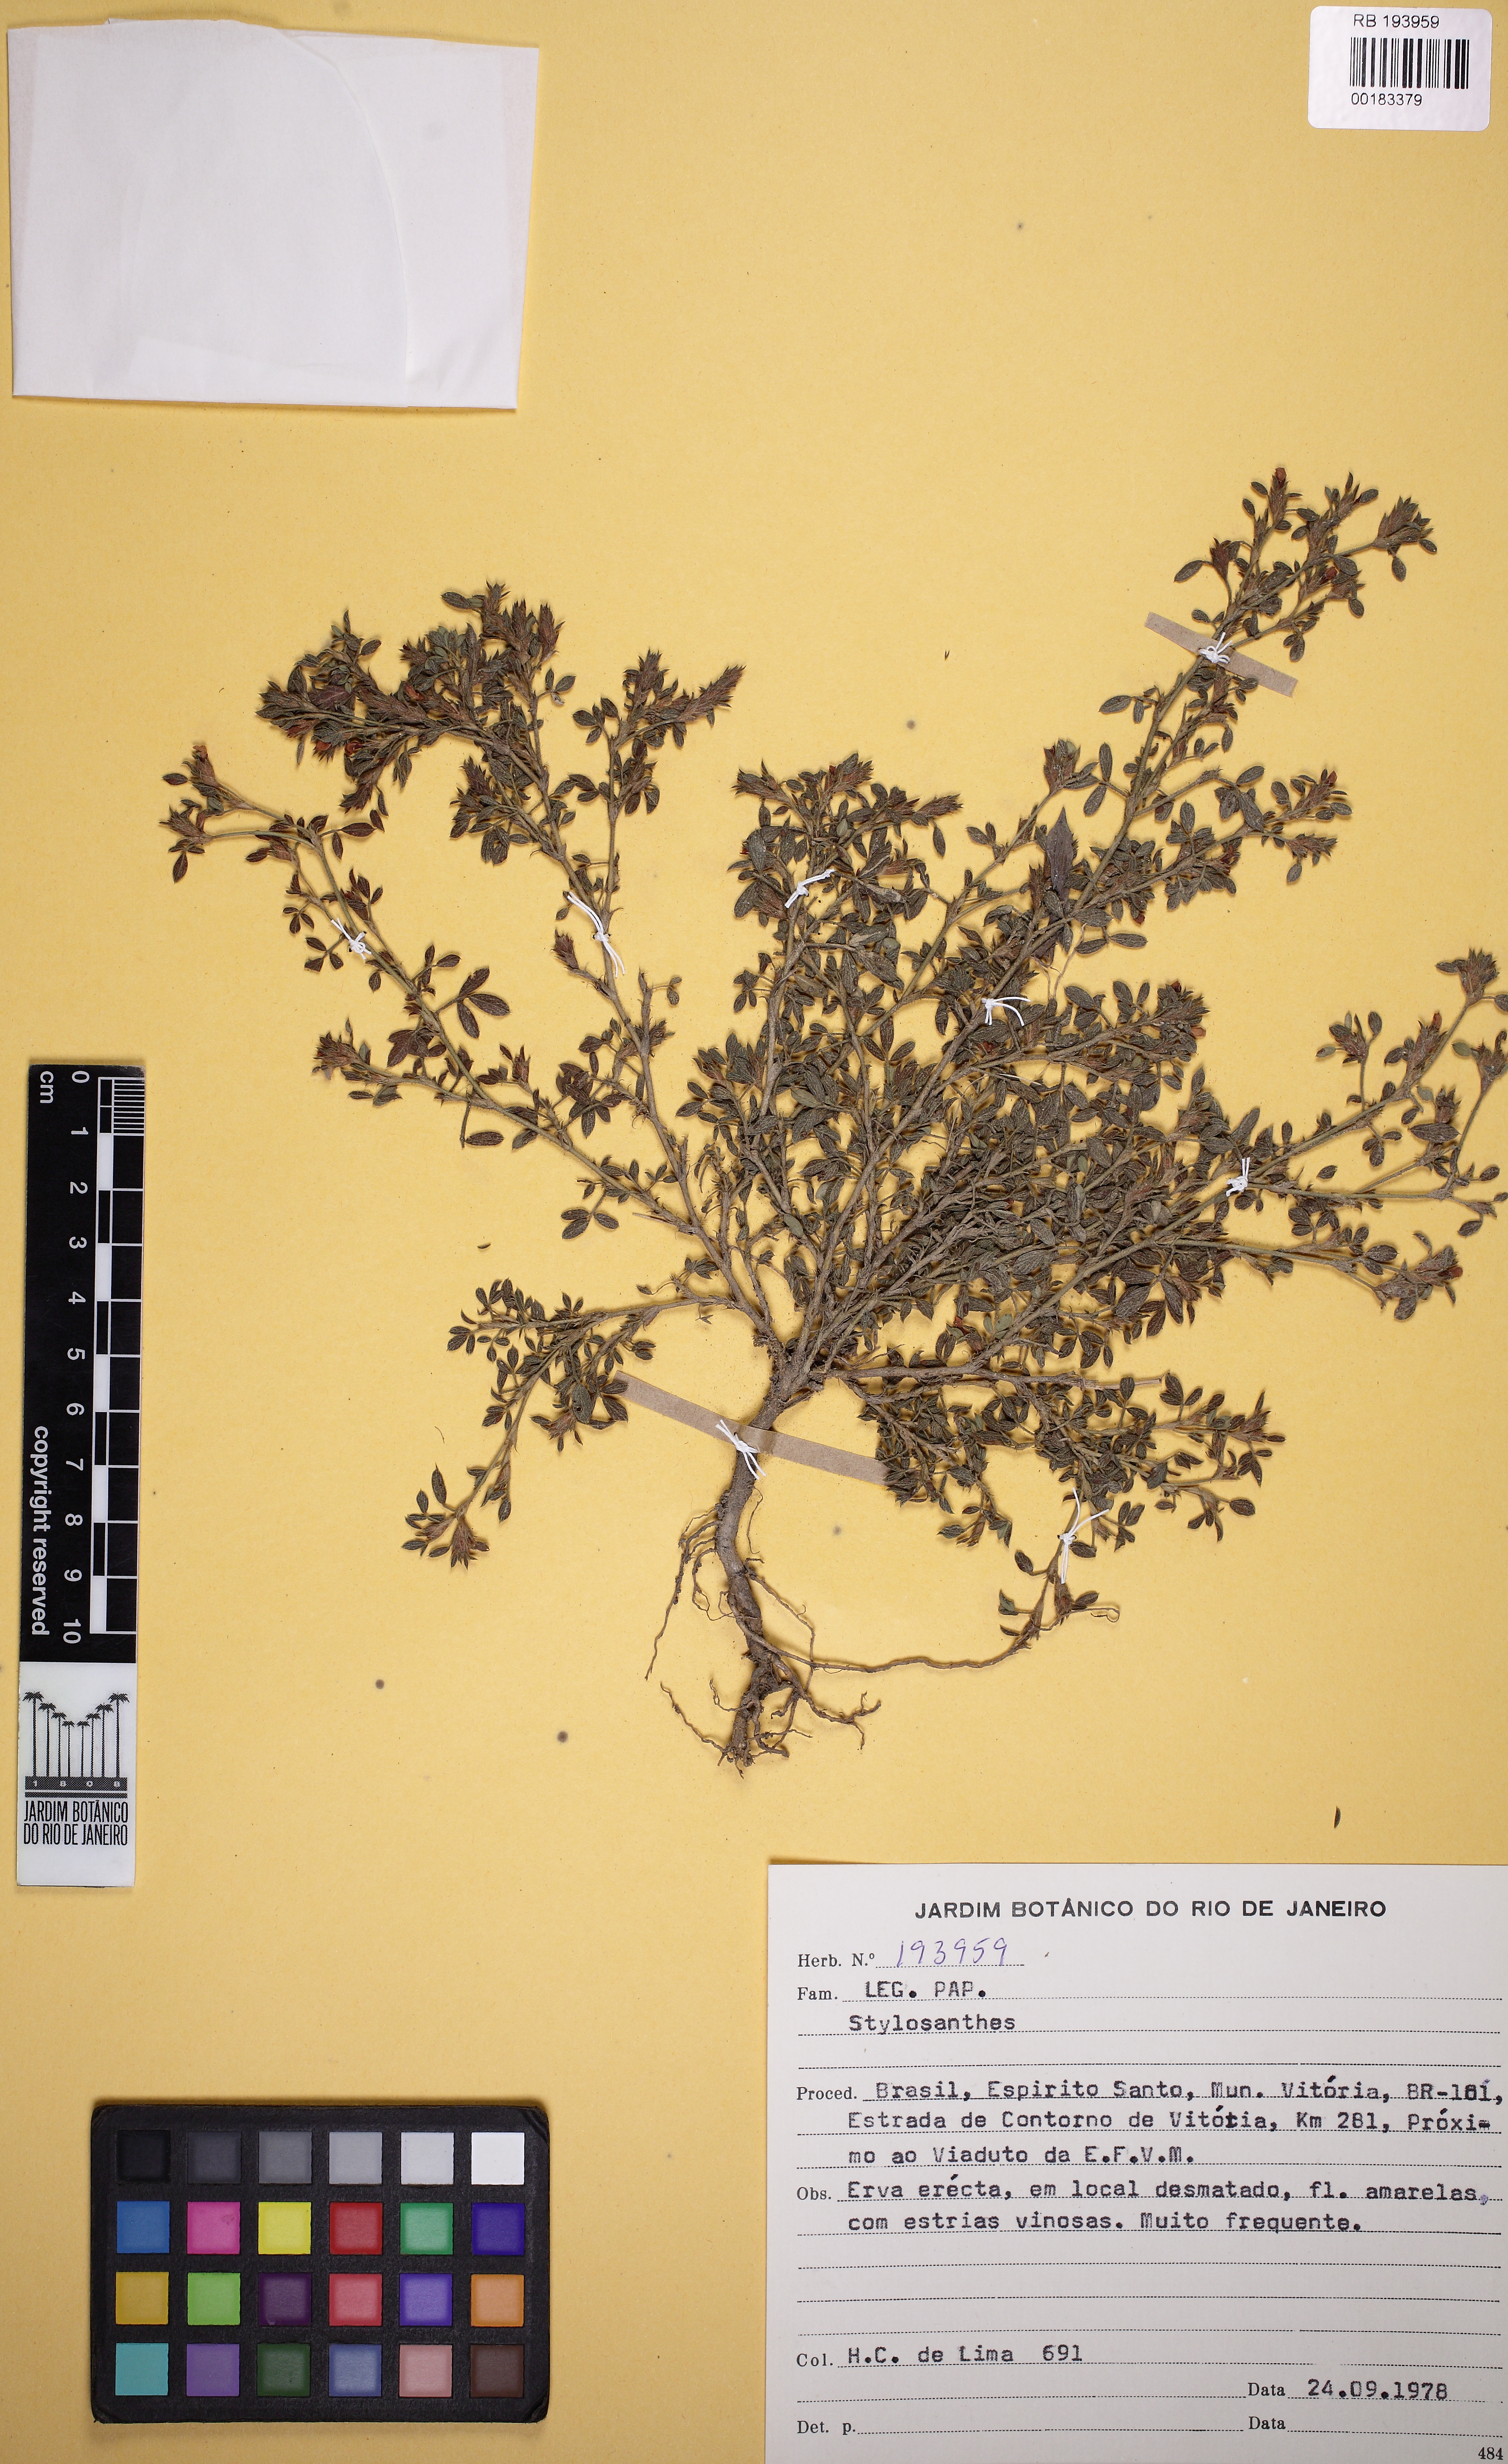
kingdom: Plantae
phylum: Tracheophyta
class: Magnoliopsida
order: Fabales
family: Fabaceae
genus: Stylosanthes
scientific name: Stylosanthes
